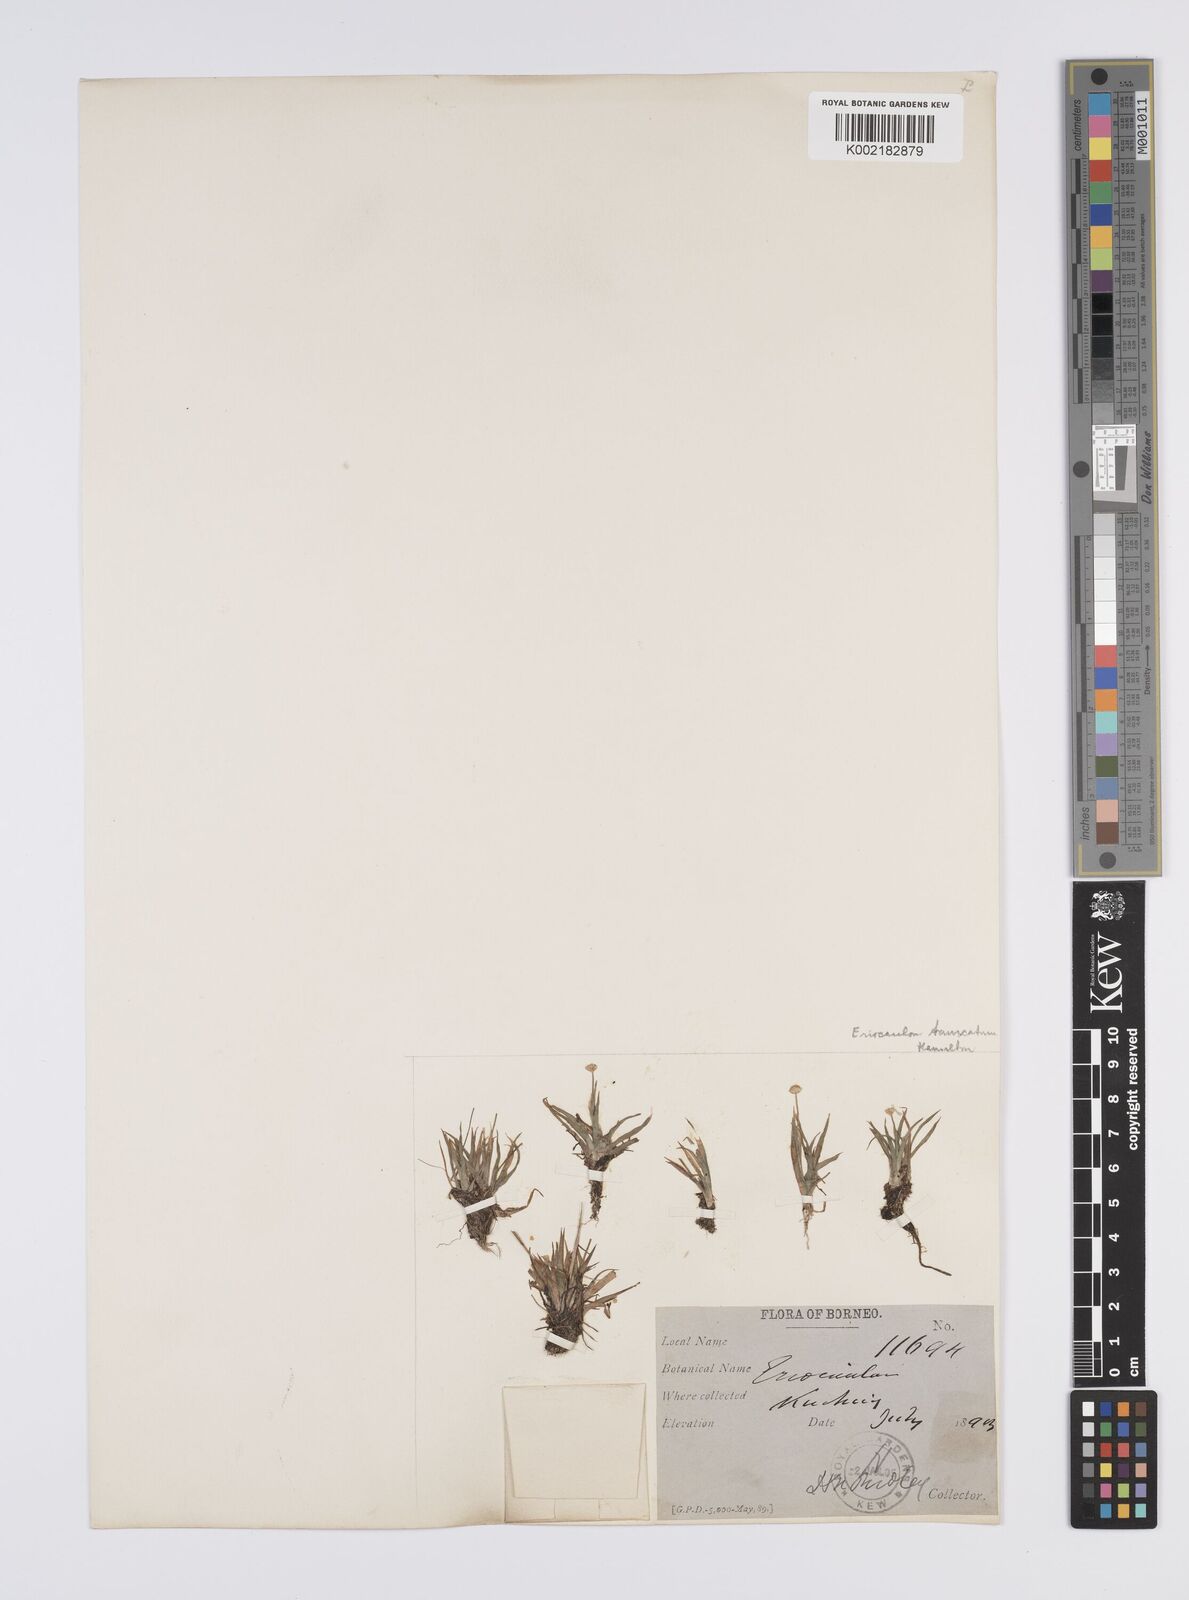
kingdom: Plantae
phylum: Tracheophyta
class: Liliopsida
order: Poales
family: Eriocaulaceae
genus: Eriocaulon
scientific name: Eriocaulon
